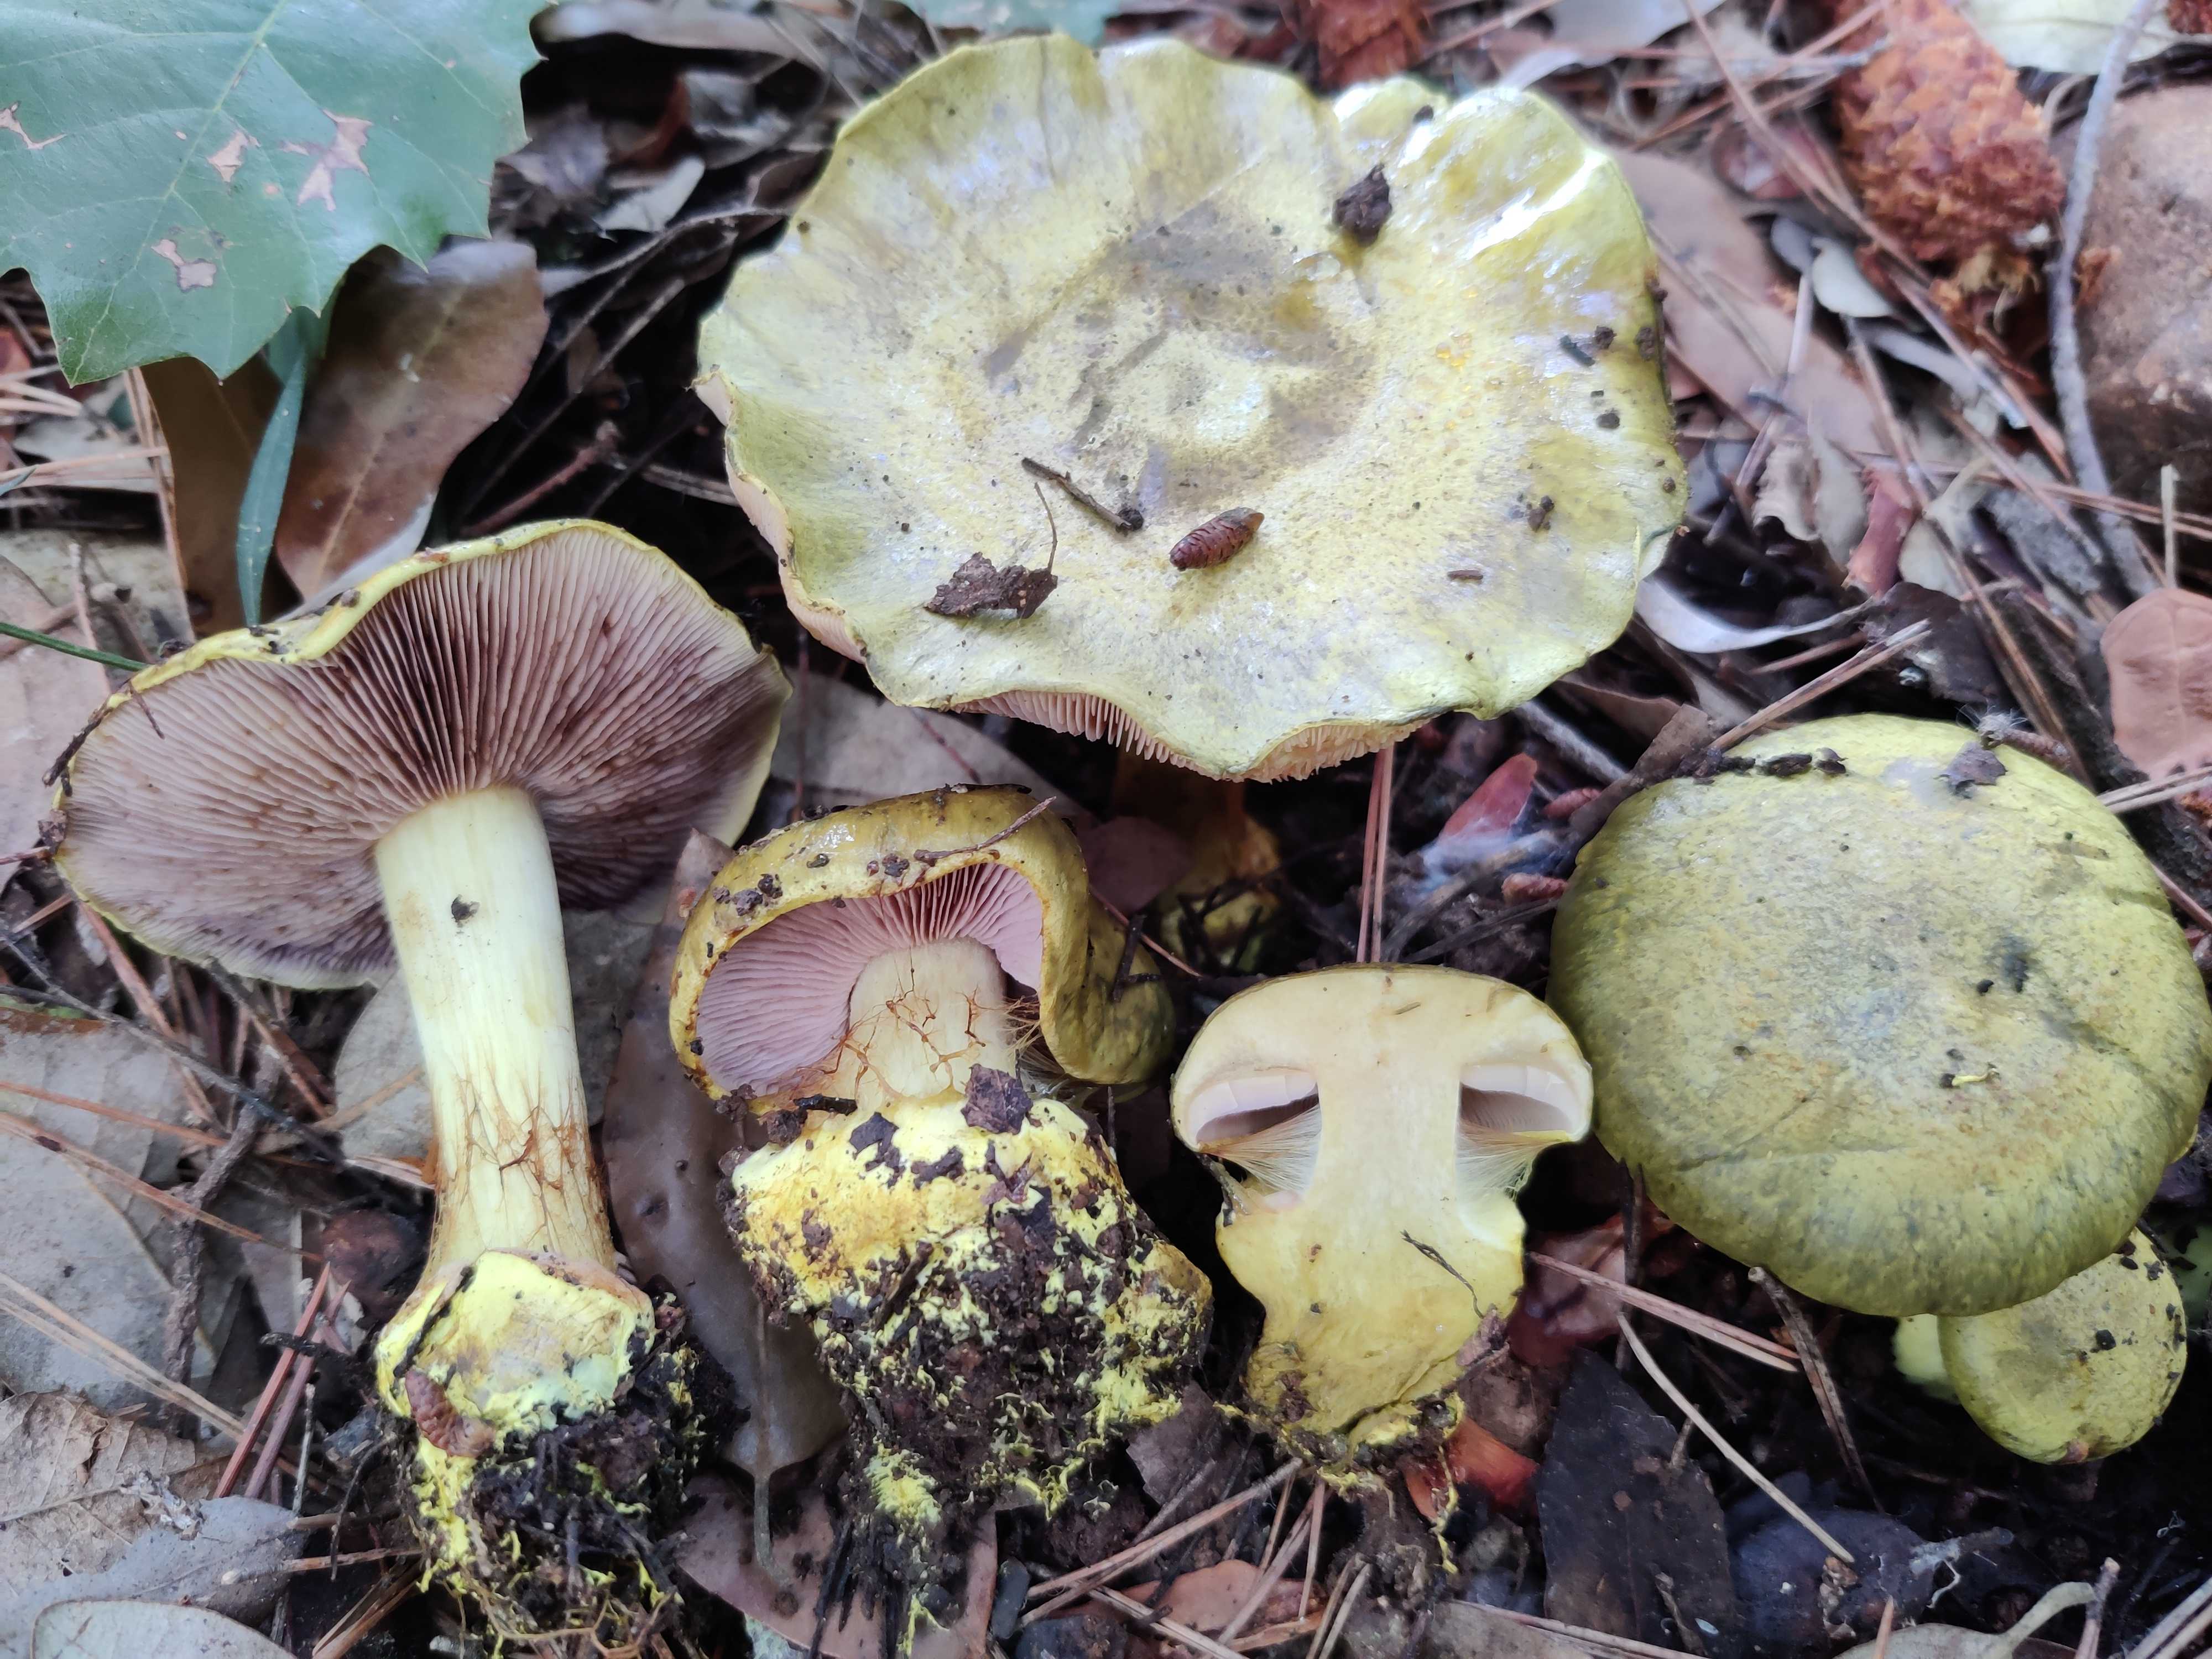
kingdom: Fungi
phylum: Basidiomycota
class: Agaricomycetes
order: Agaricales
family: Cortinariaceae
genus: Calonarius
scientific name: Calonarius ionochlorus
